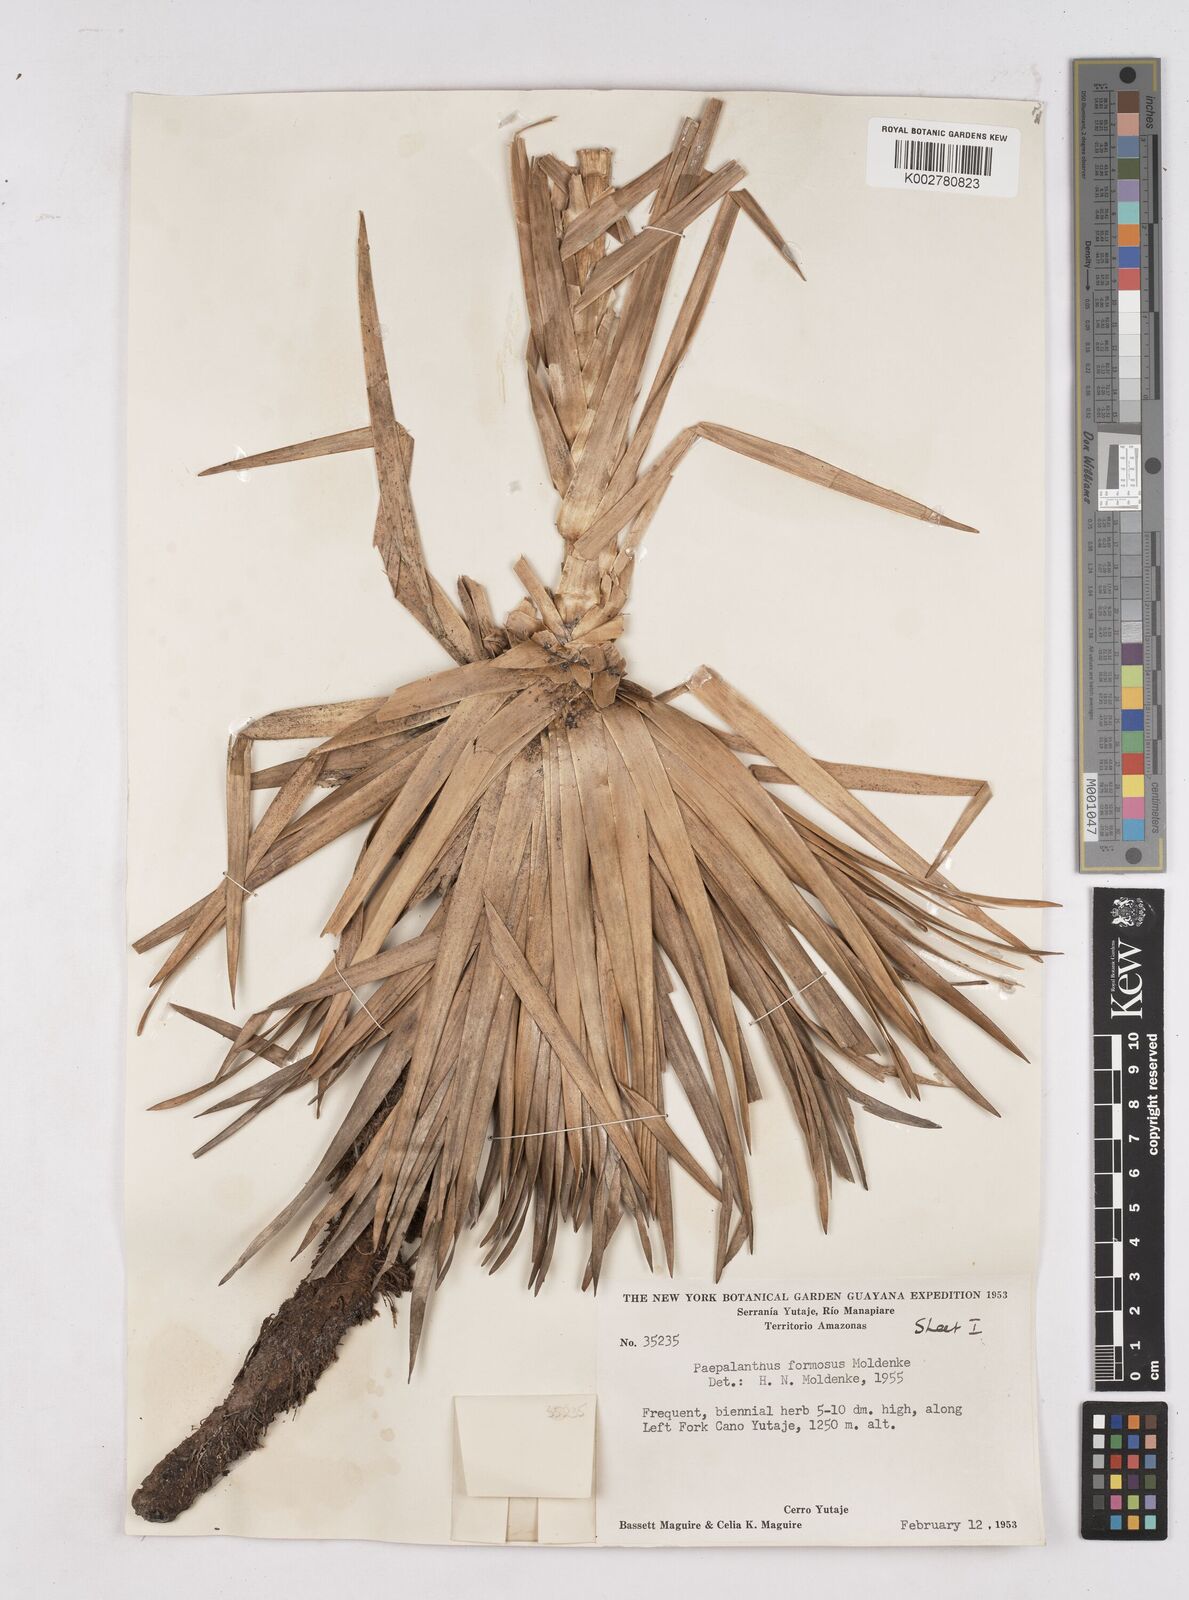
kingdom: Plantae
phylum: Tracheophyta
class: Liliopsida
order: Poales
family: Eriocaulaceae
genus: Paepalanthus
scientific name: Paepalanthus chiquitensis
